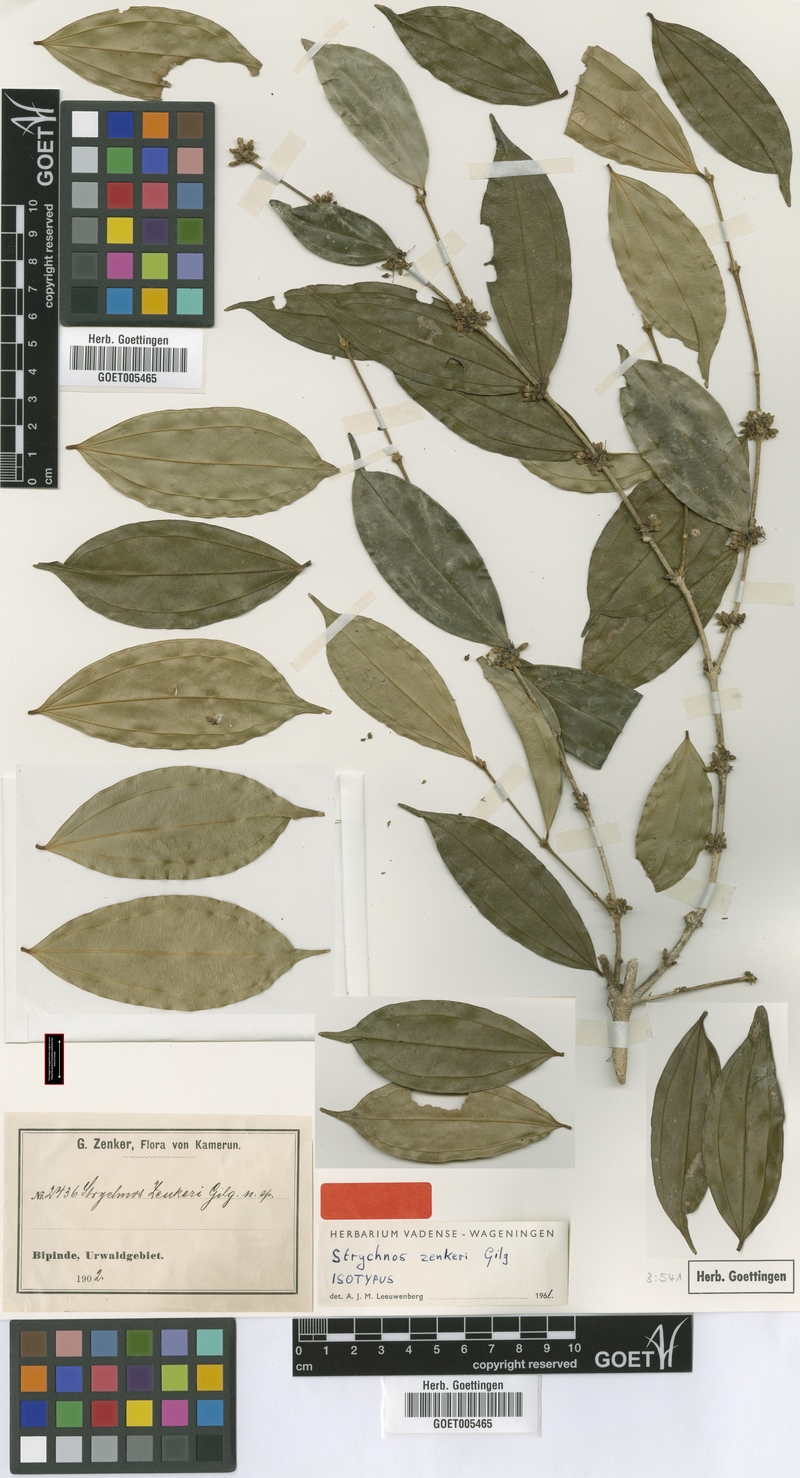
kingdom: Plantae
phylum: Tracheophyta
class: Magnoliopsida
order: Gentianales
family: Loganiaceae
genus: Strychnos
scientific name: Strychnos zenkeri
